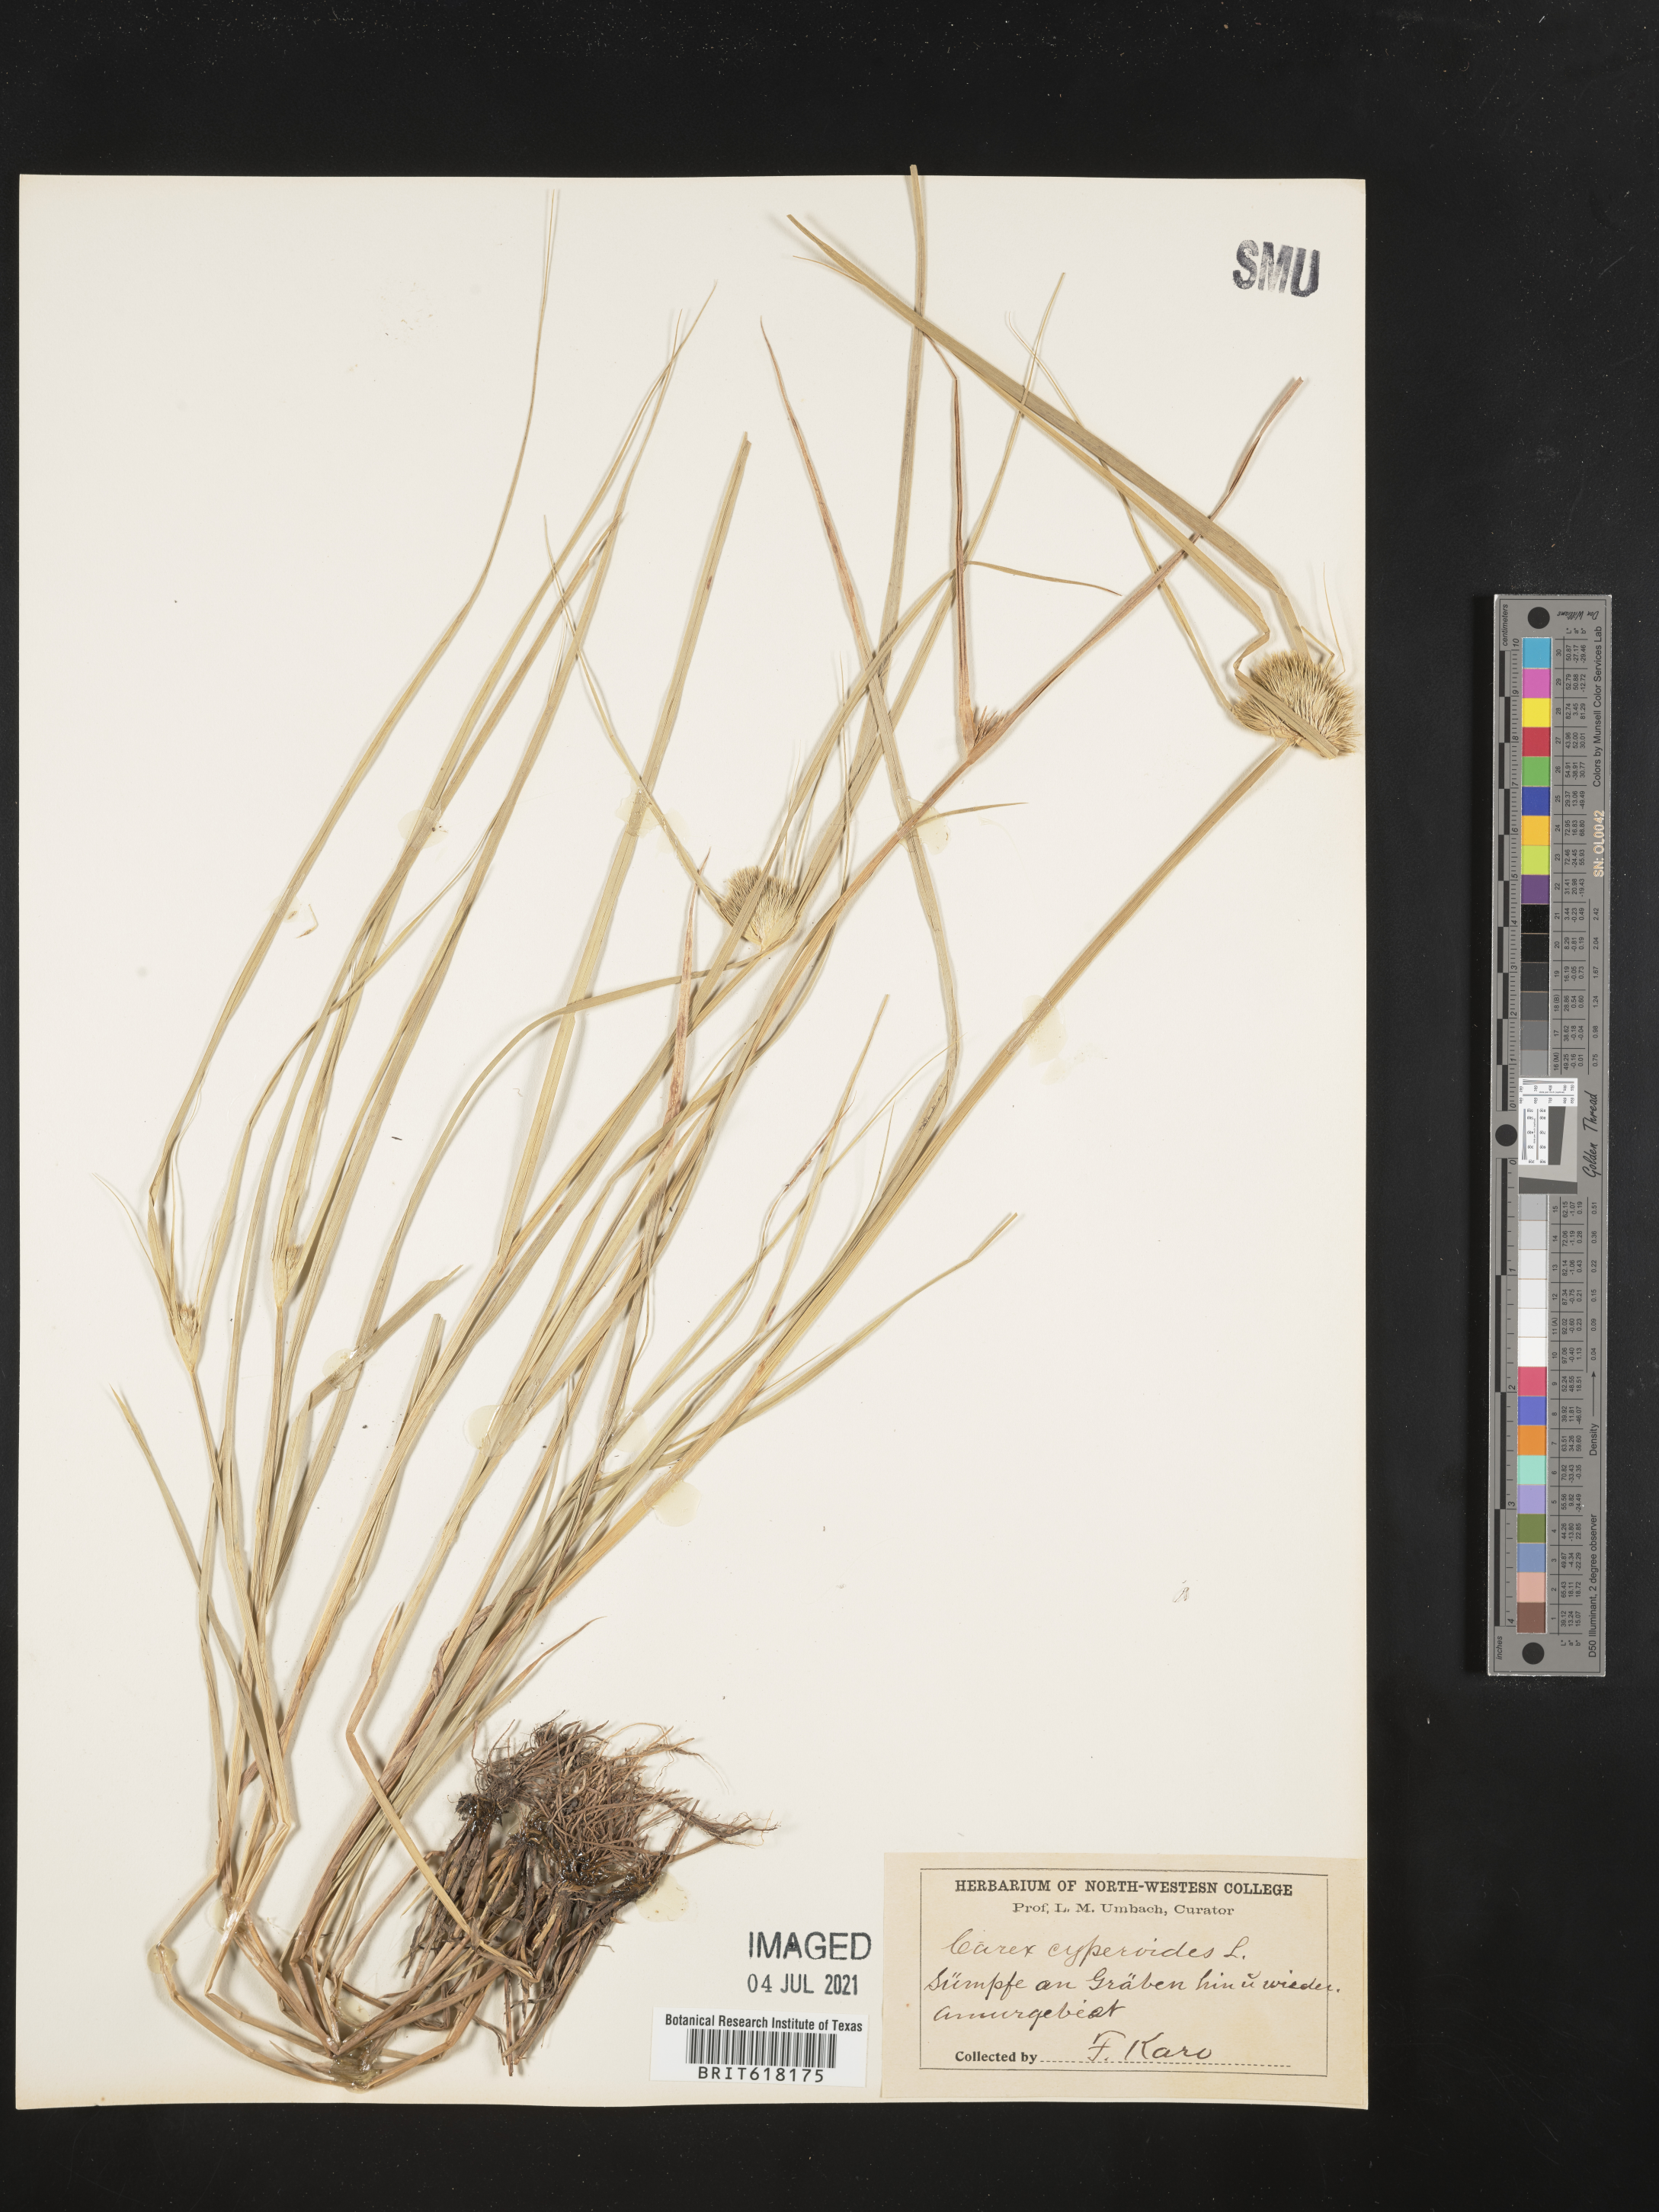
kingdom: Plantae
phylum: Tracheophyta
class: Liliopsida
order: Poales
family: Cyperaceae
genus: Carex
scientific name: Carex bohemica
